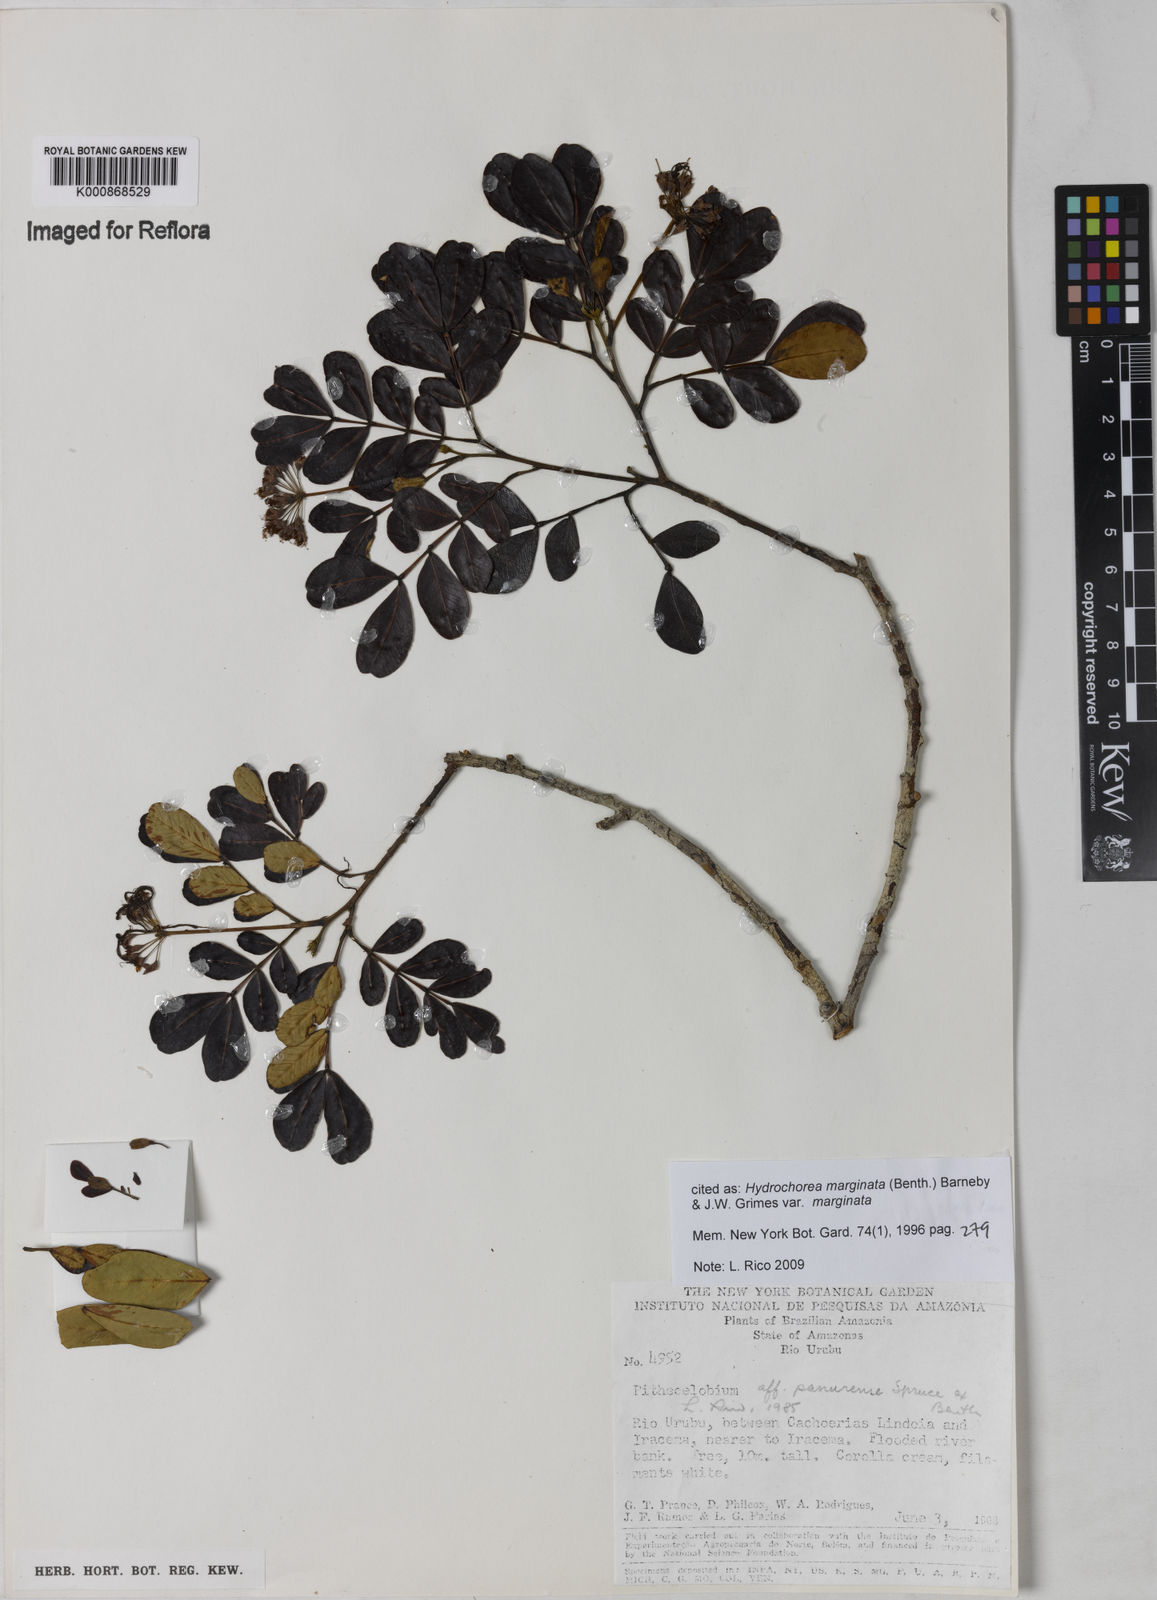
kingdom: Plantae
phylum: Tracheophyta
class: Magnoliopsida
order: Fabales
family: Fabaceae
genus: Hydrochorea
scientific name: Hydrochorea marginata
